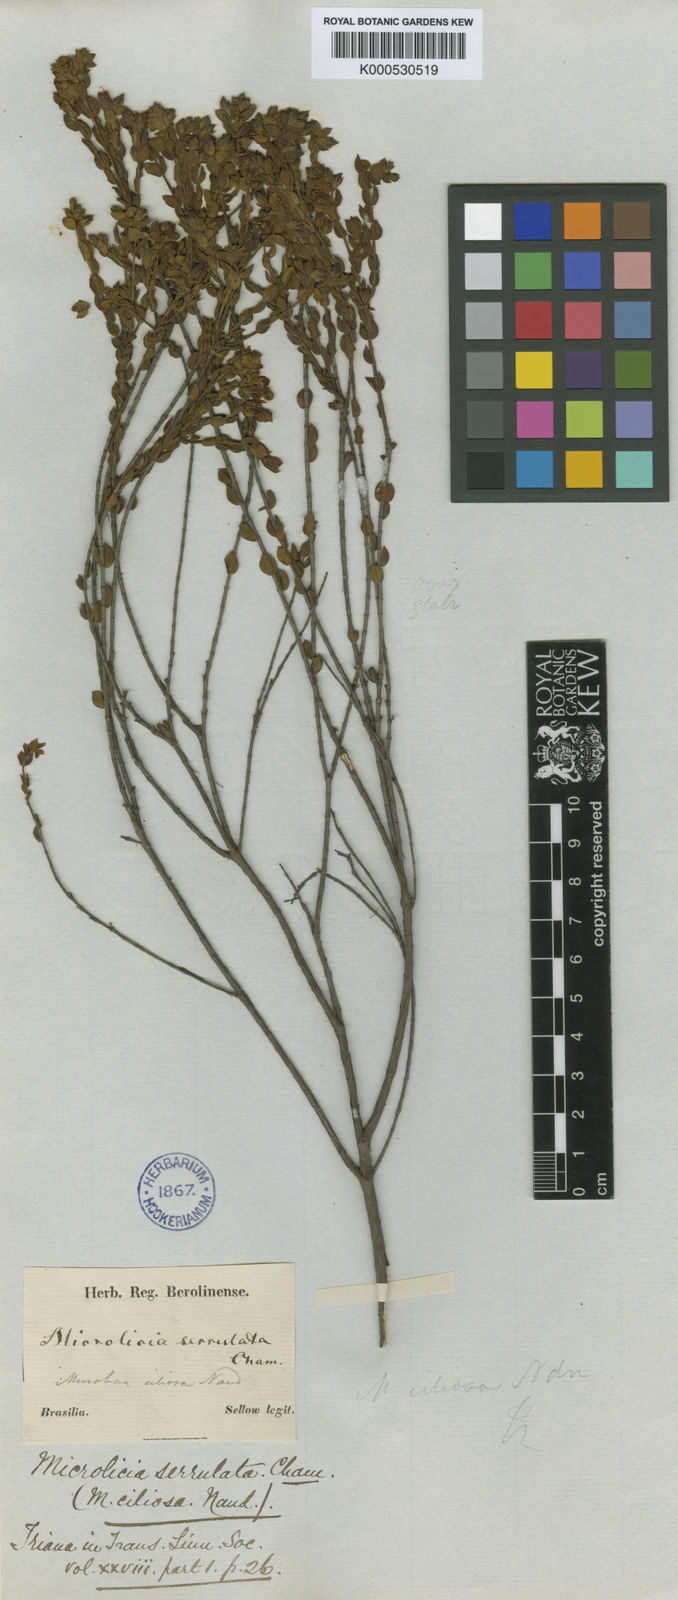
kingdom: Plantae
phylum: Tracheophyta
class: Magnoliopsida
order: Myrtales
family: Melastomataceae
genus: Microlicia
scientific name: Microlicia serrulata
